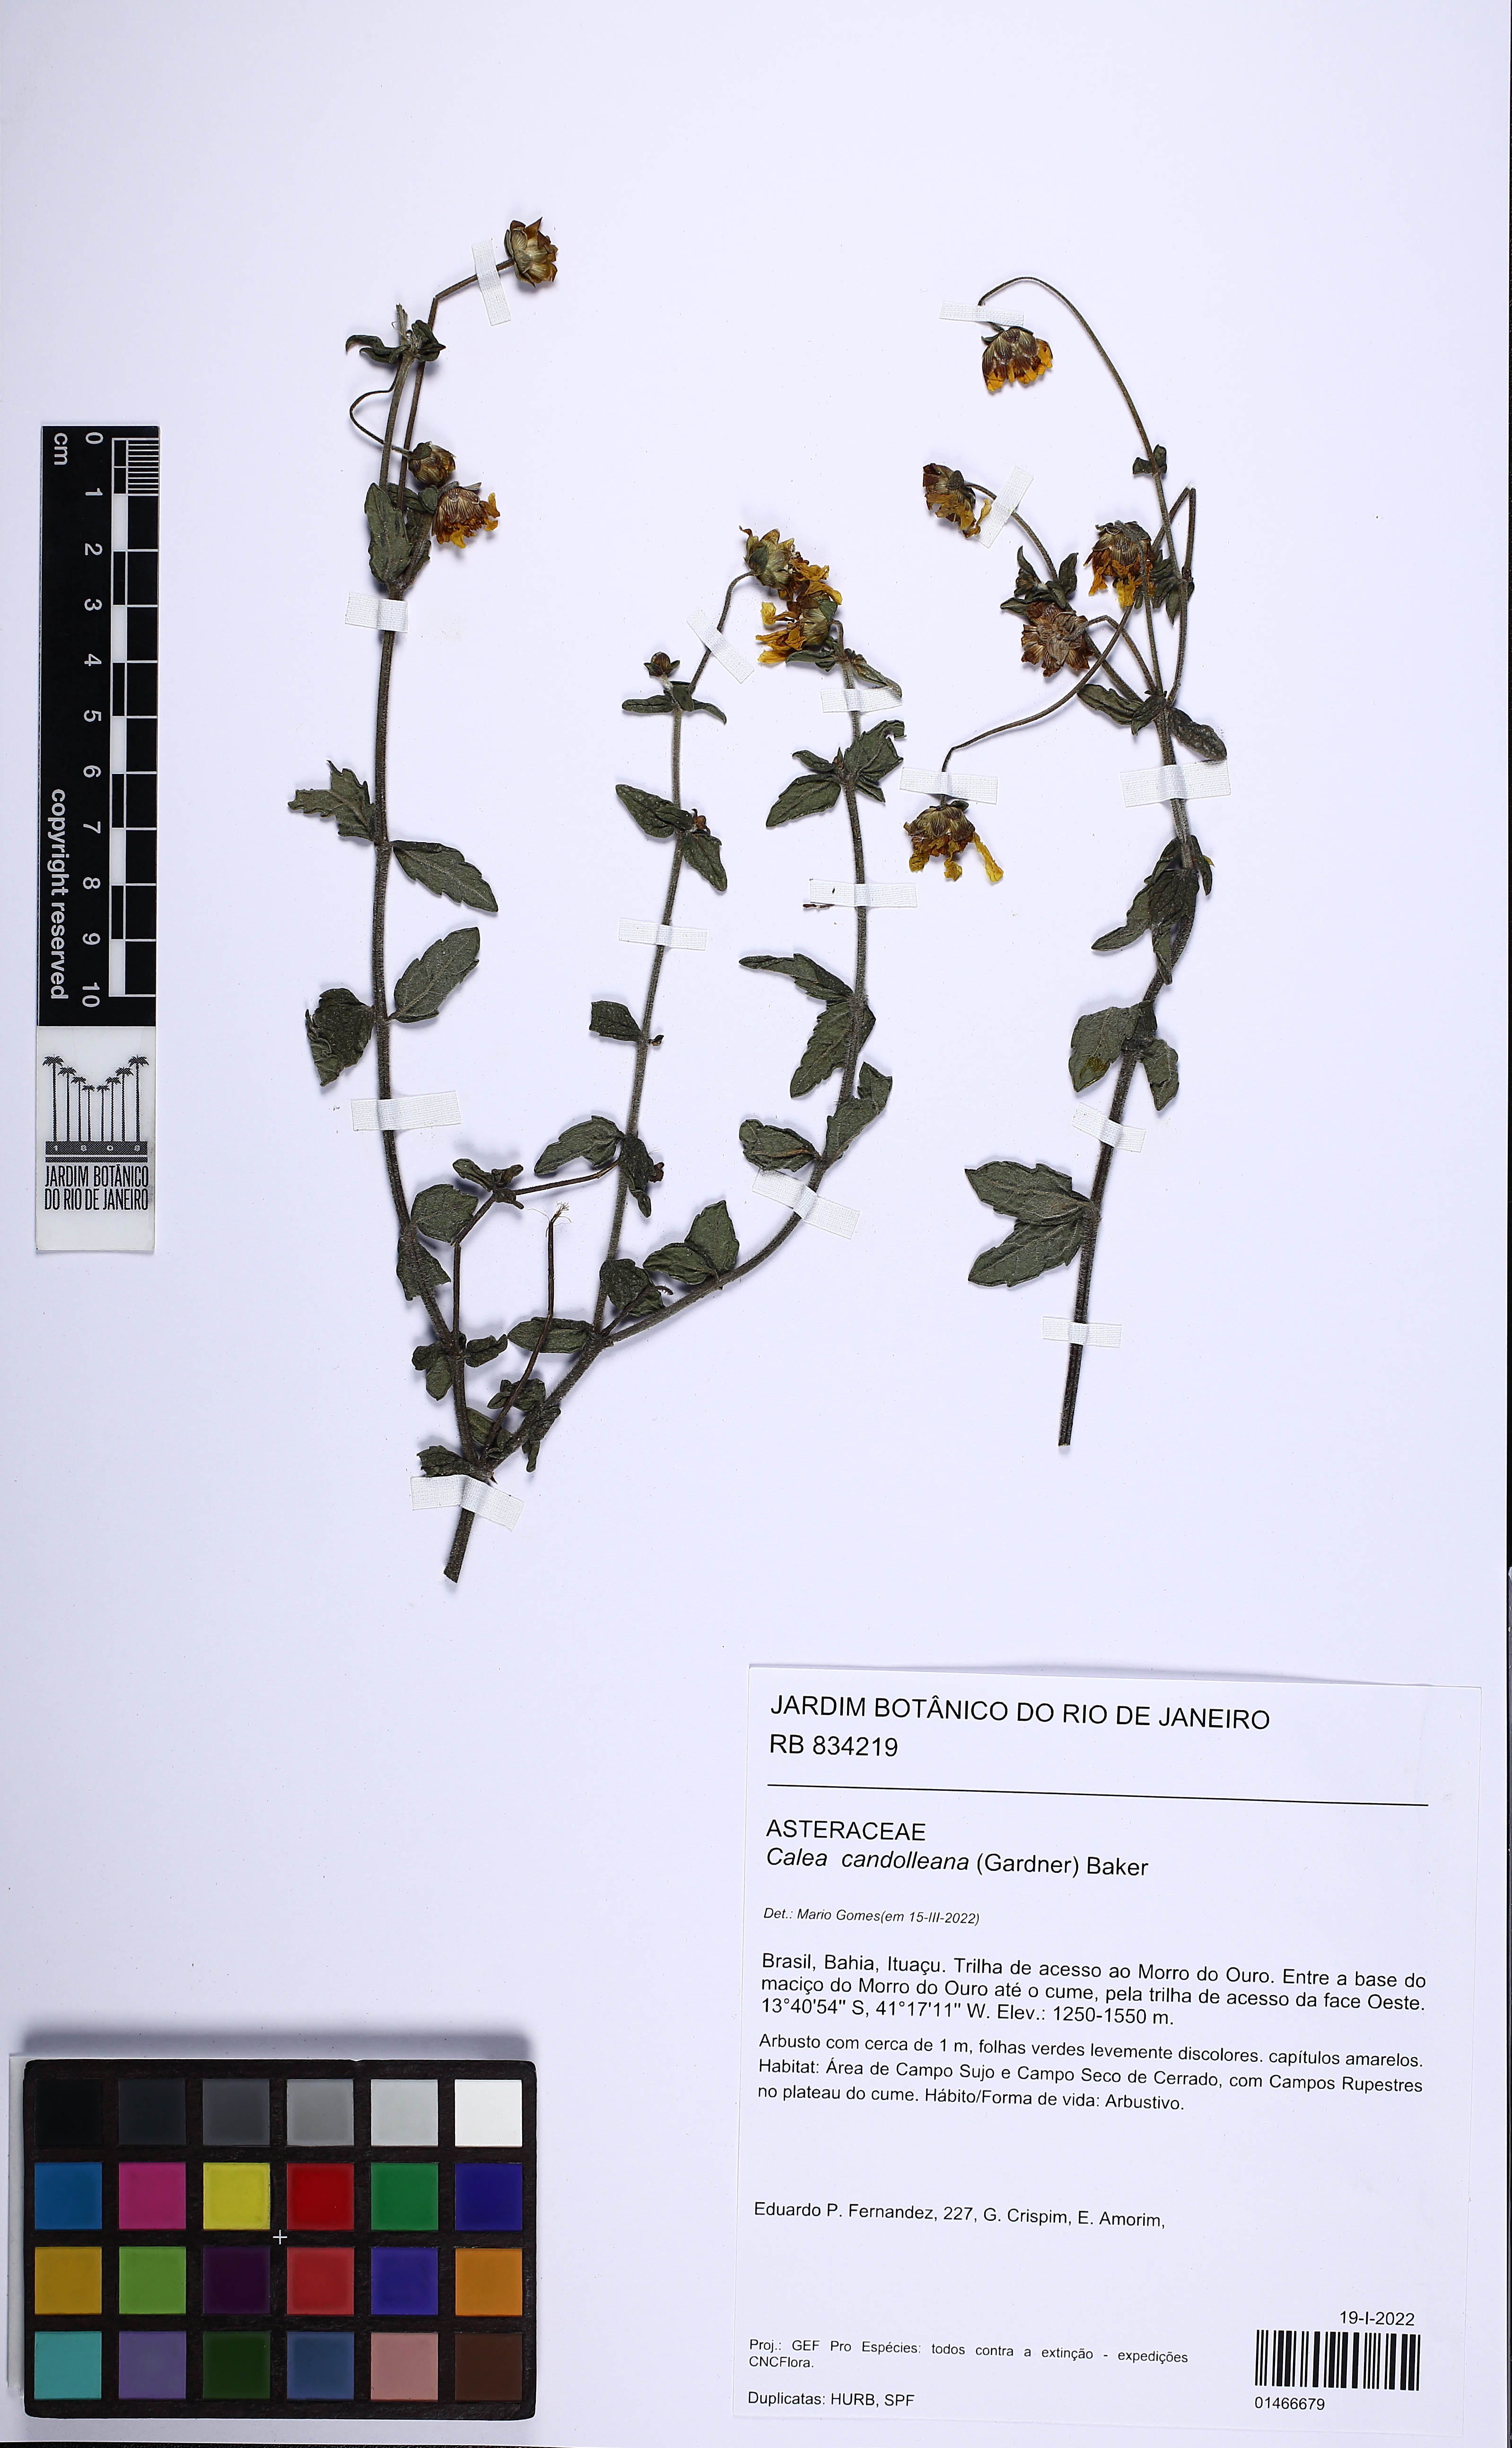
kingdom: Plantae
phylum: Tracheophyta
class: Magnoliopsida
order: Asterales
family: Asteraceae
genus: Calea
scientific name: Calea candolleana
